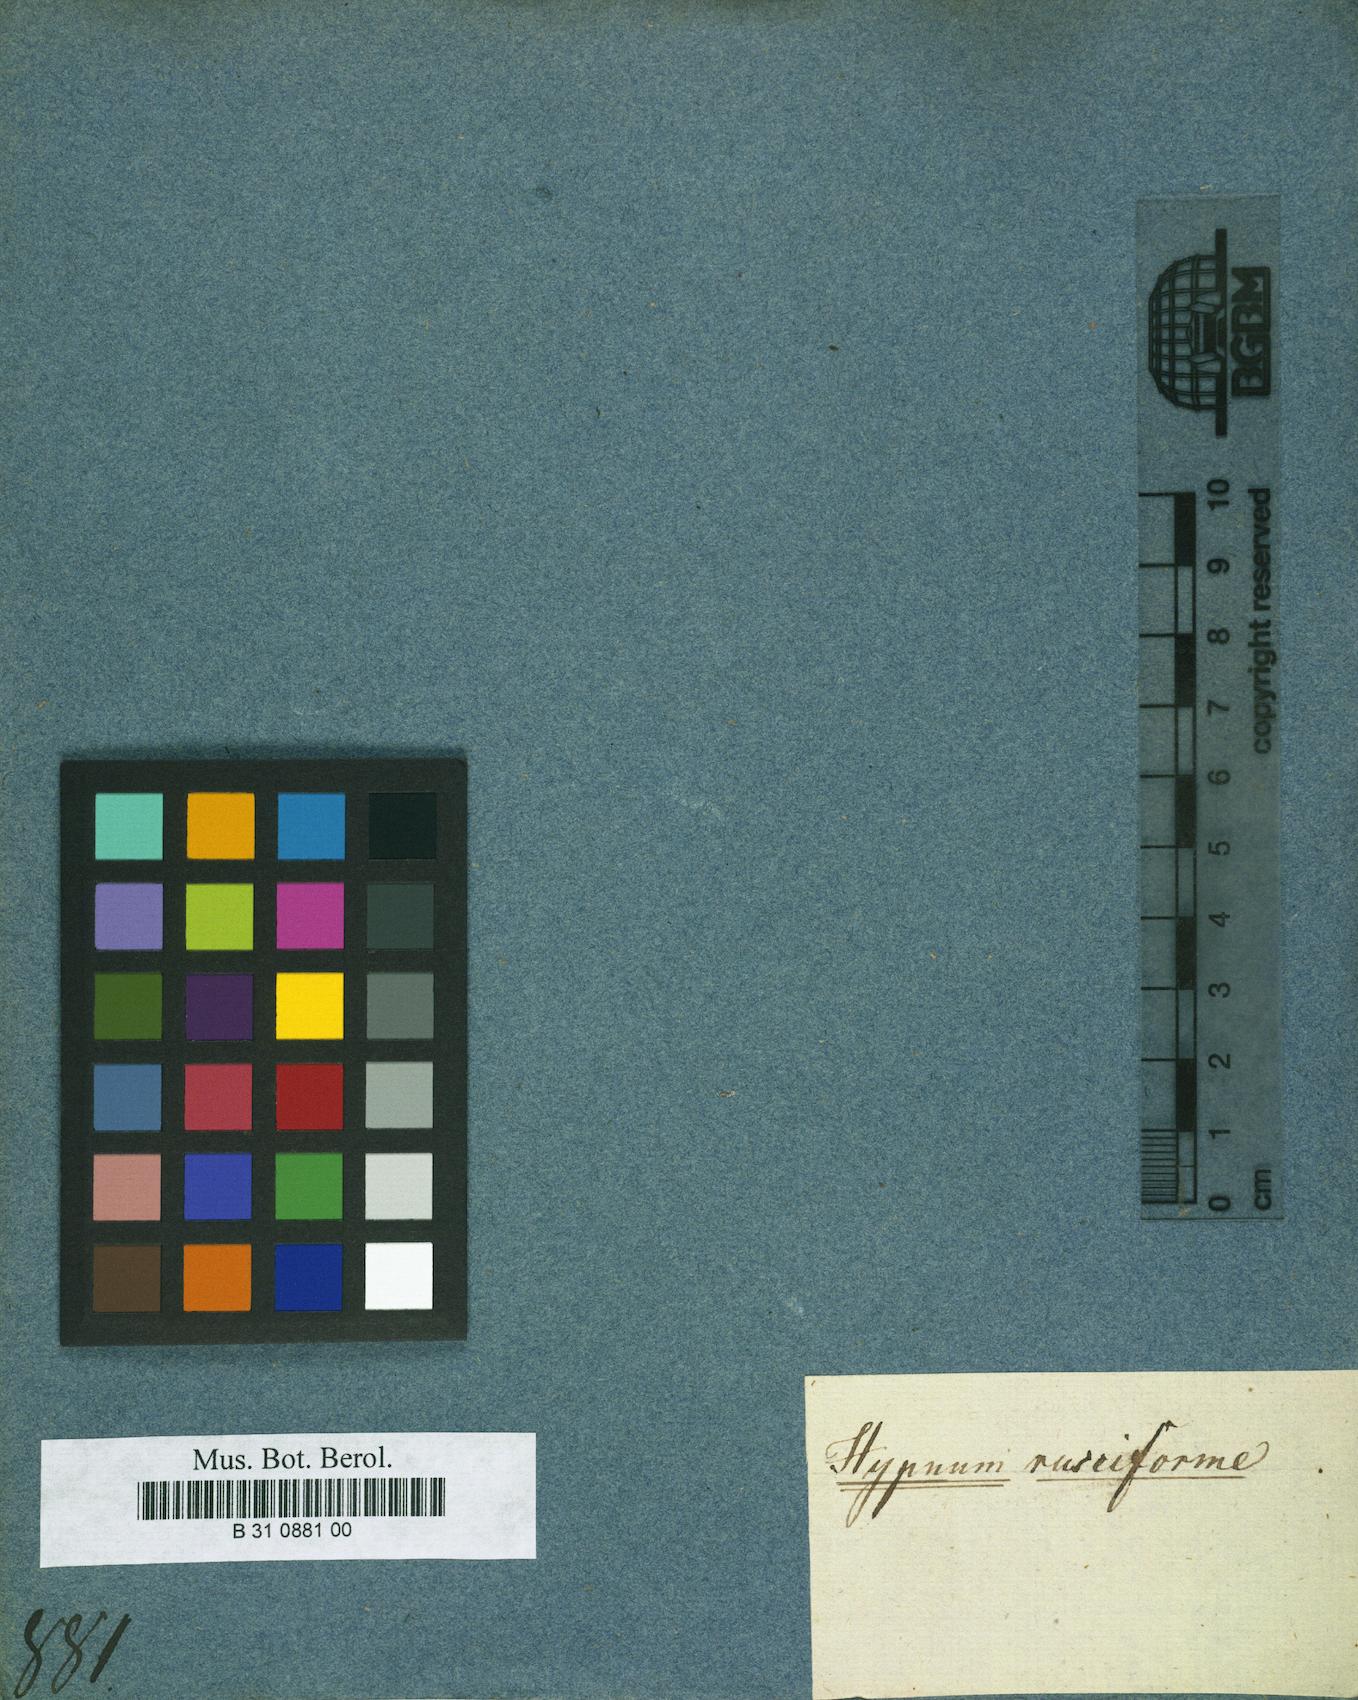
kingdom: Plantae
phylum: Bryophyta
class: Bryopsida
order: Hypnales
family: Brachytheciaceae
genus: Rhynchostegium
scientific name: Rhynchostegium riparioides
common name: Platyhypnidium moss
